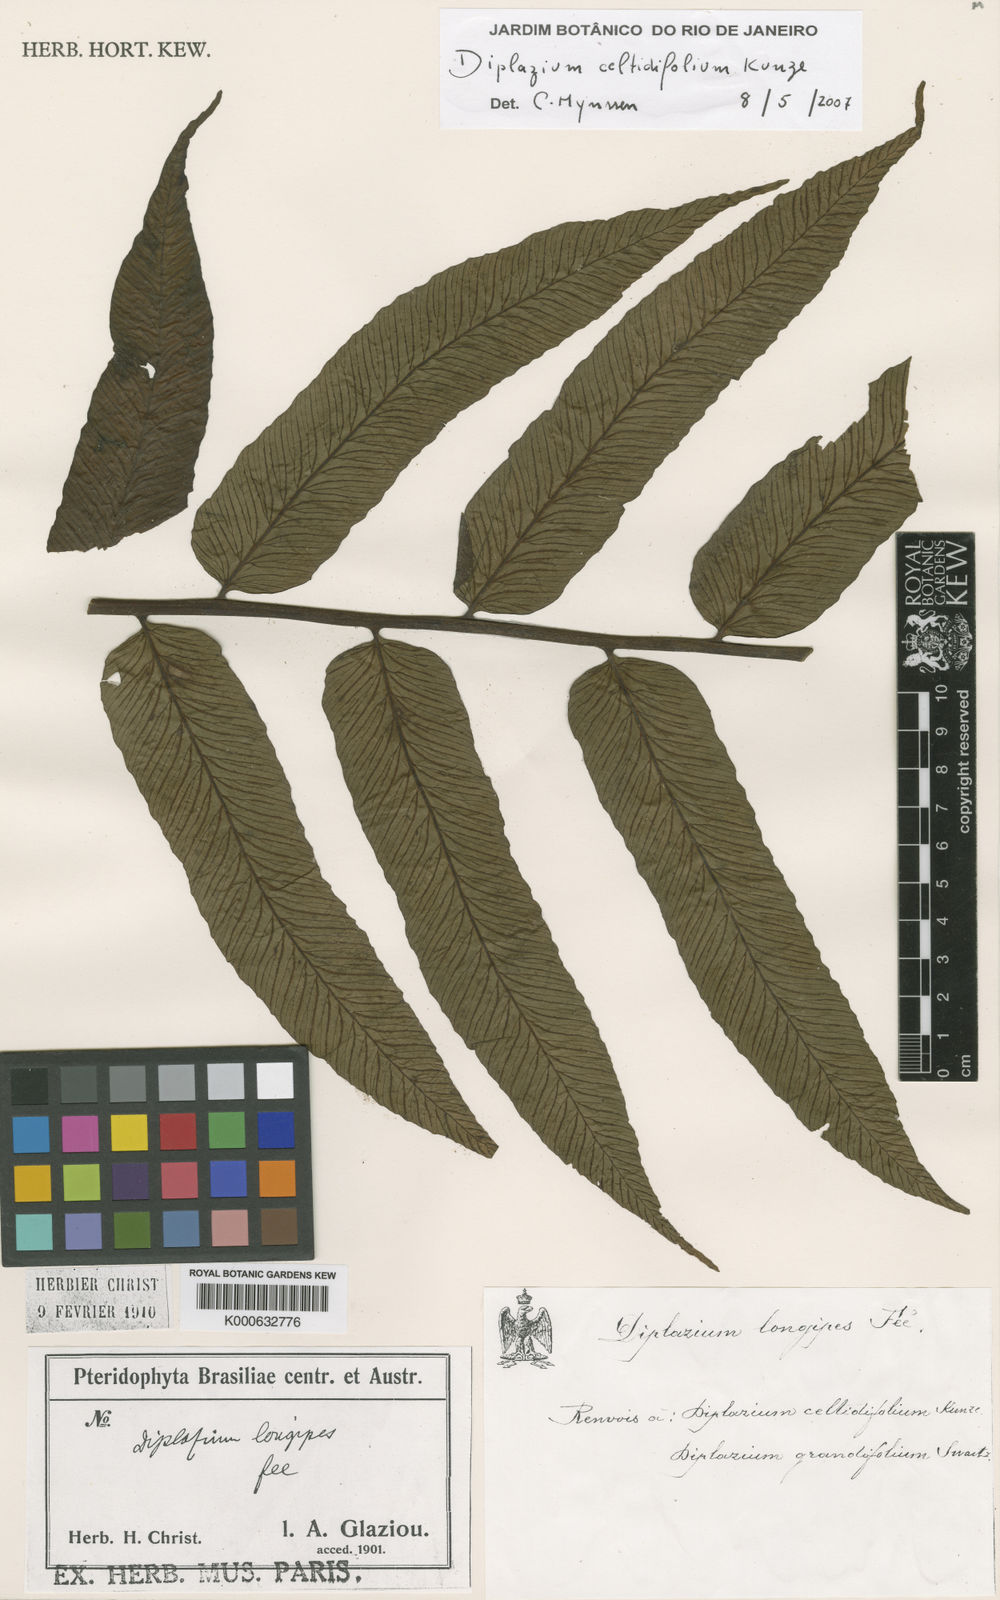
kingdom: Plantae
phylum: Tracheophyta
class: Polypodiopsida
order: Polypodiales
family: Athyriaceae
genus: Diplazium
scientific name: Diplazium celtidifolium
